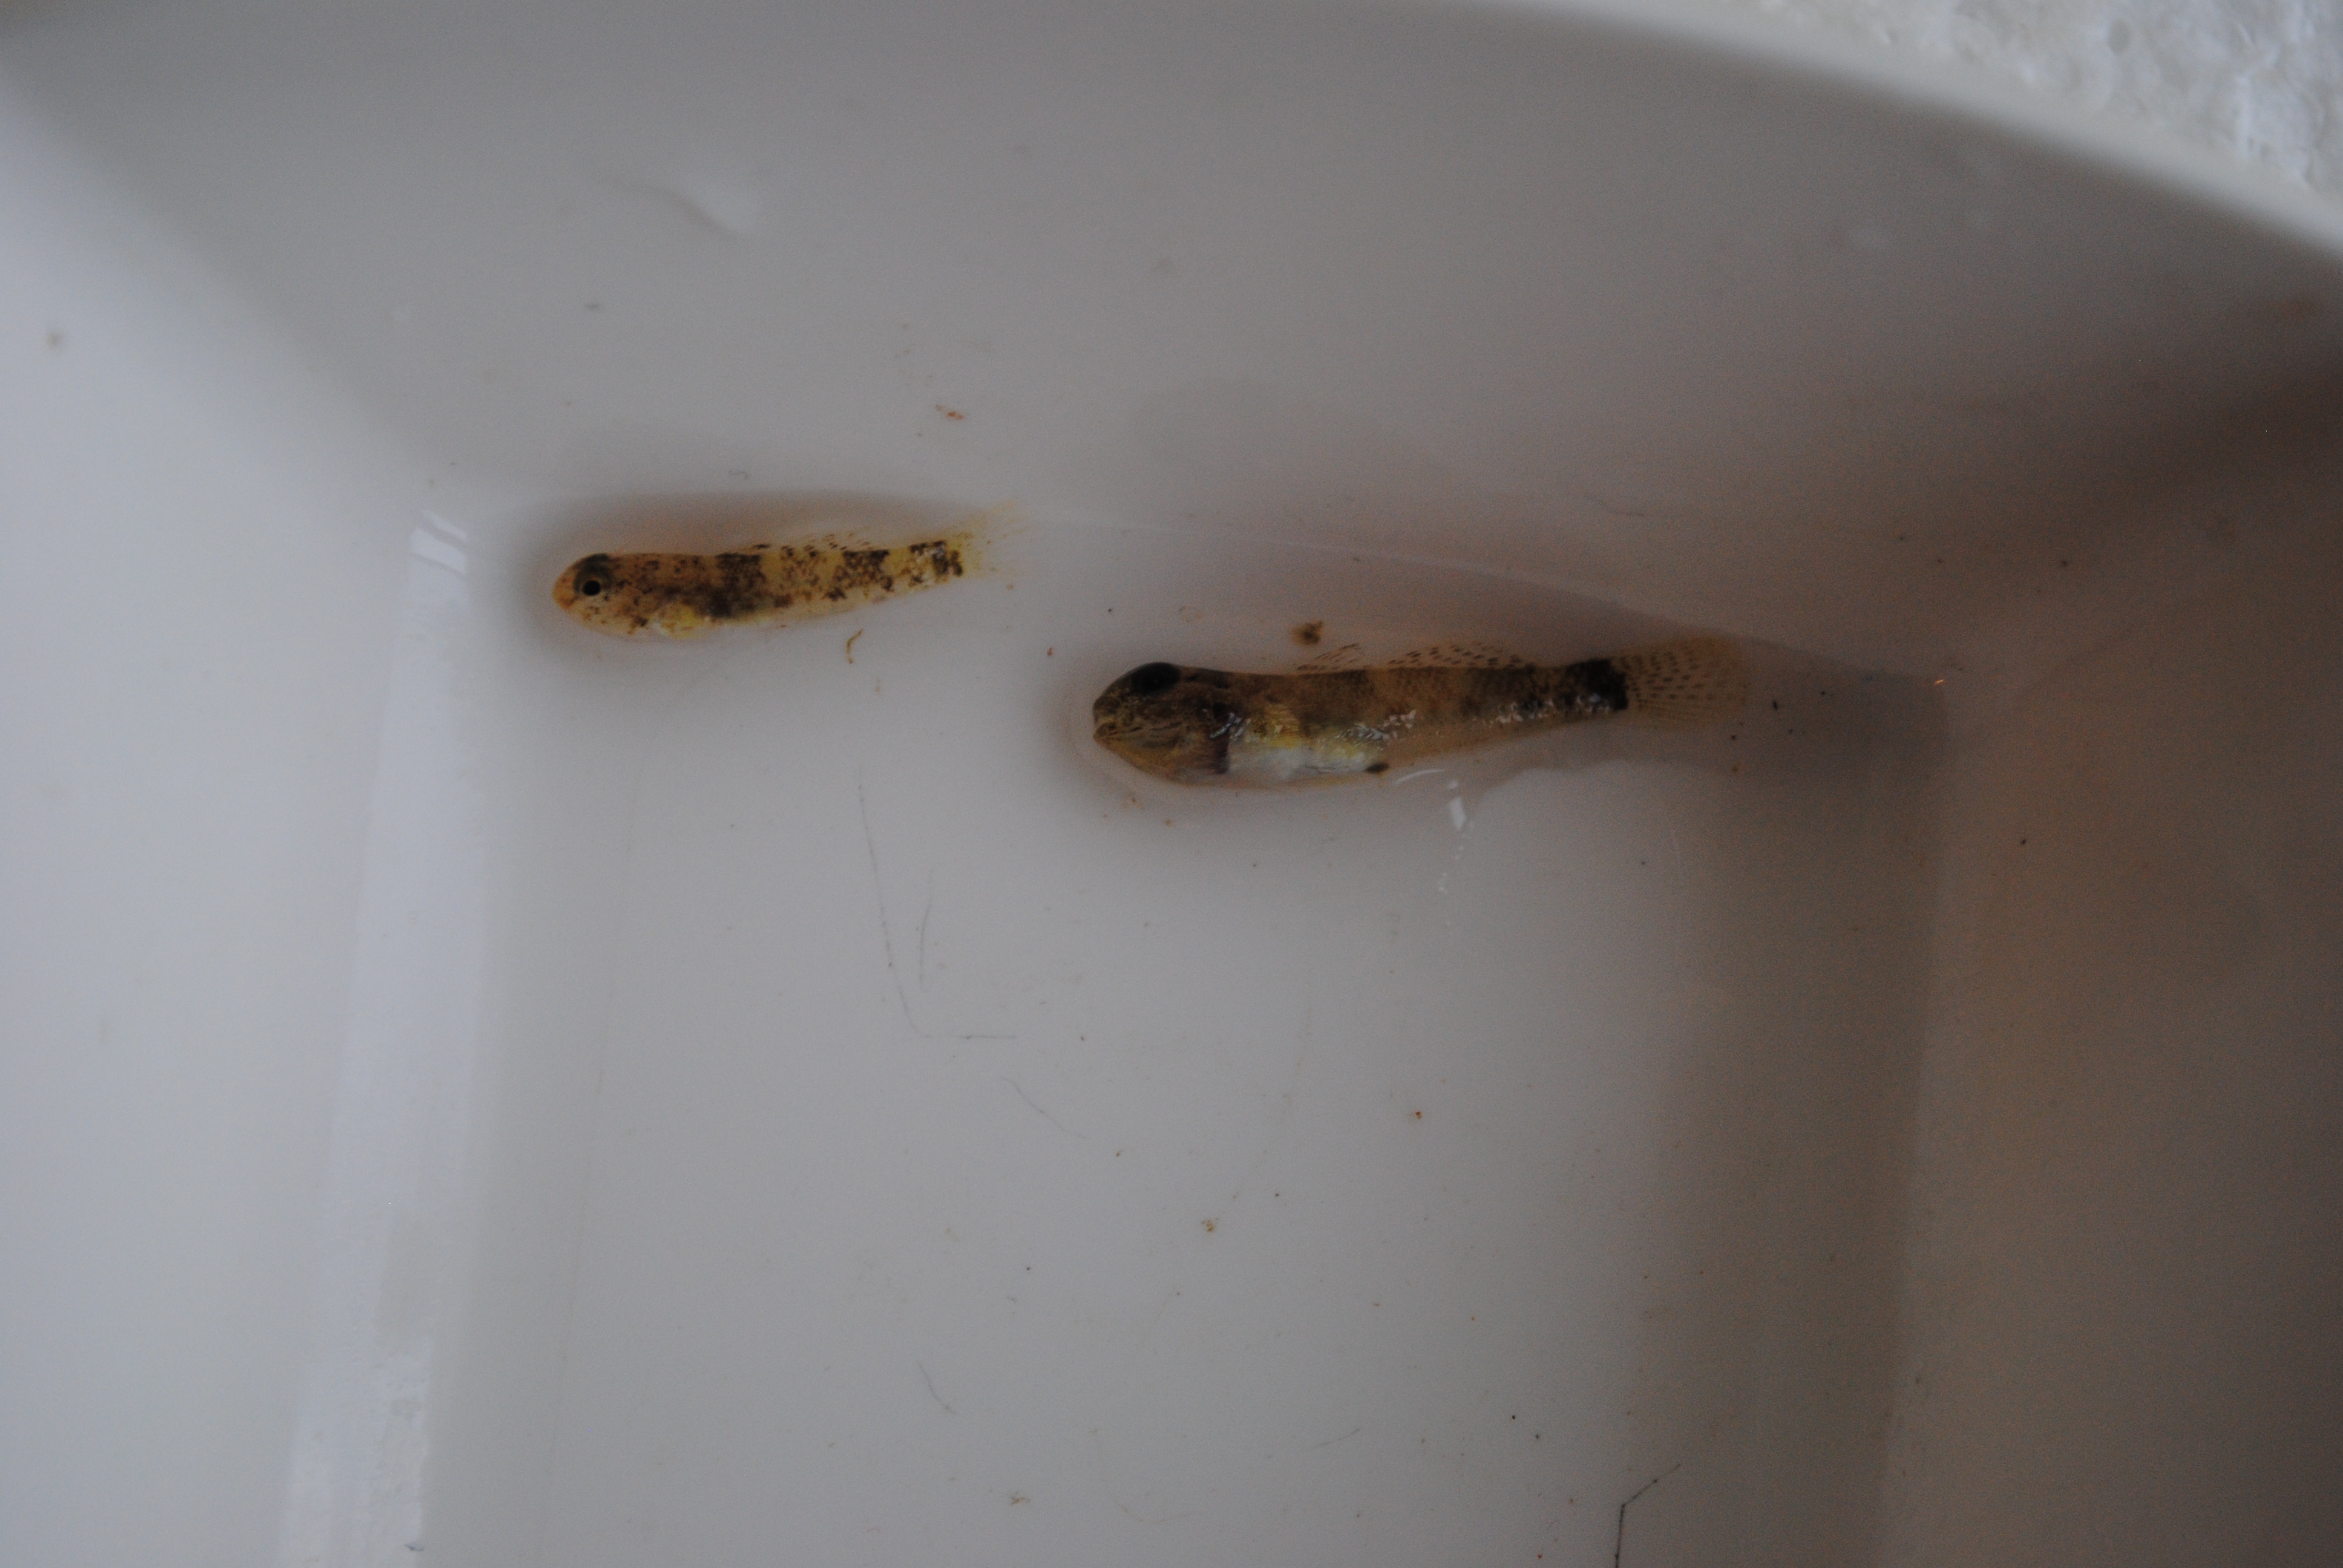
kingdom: Animalia
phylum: Chordata
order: Perciformes
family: Gobiidae
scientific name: Gobiidae
